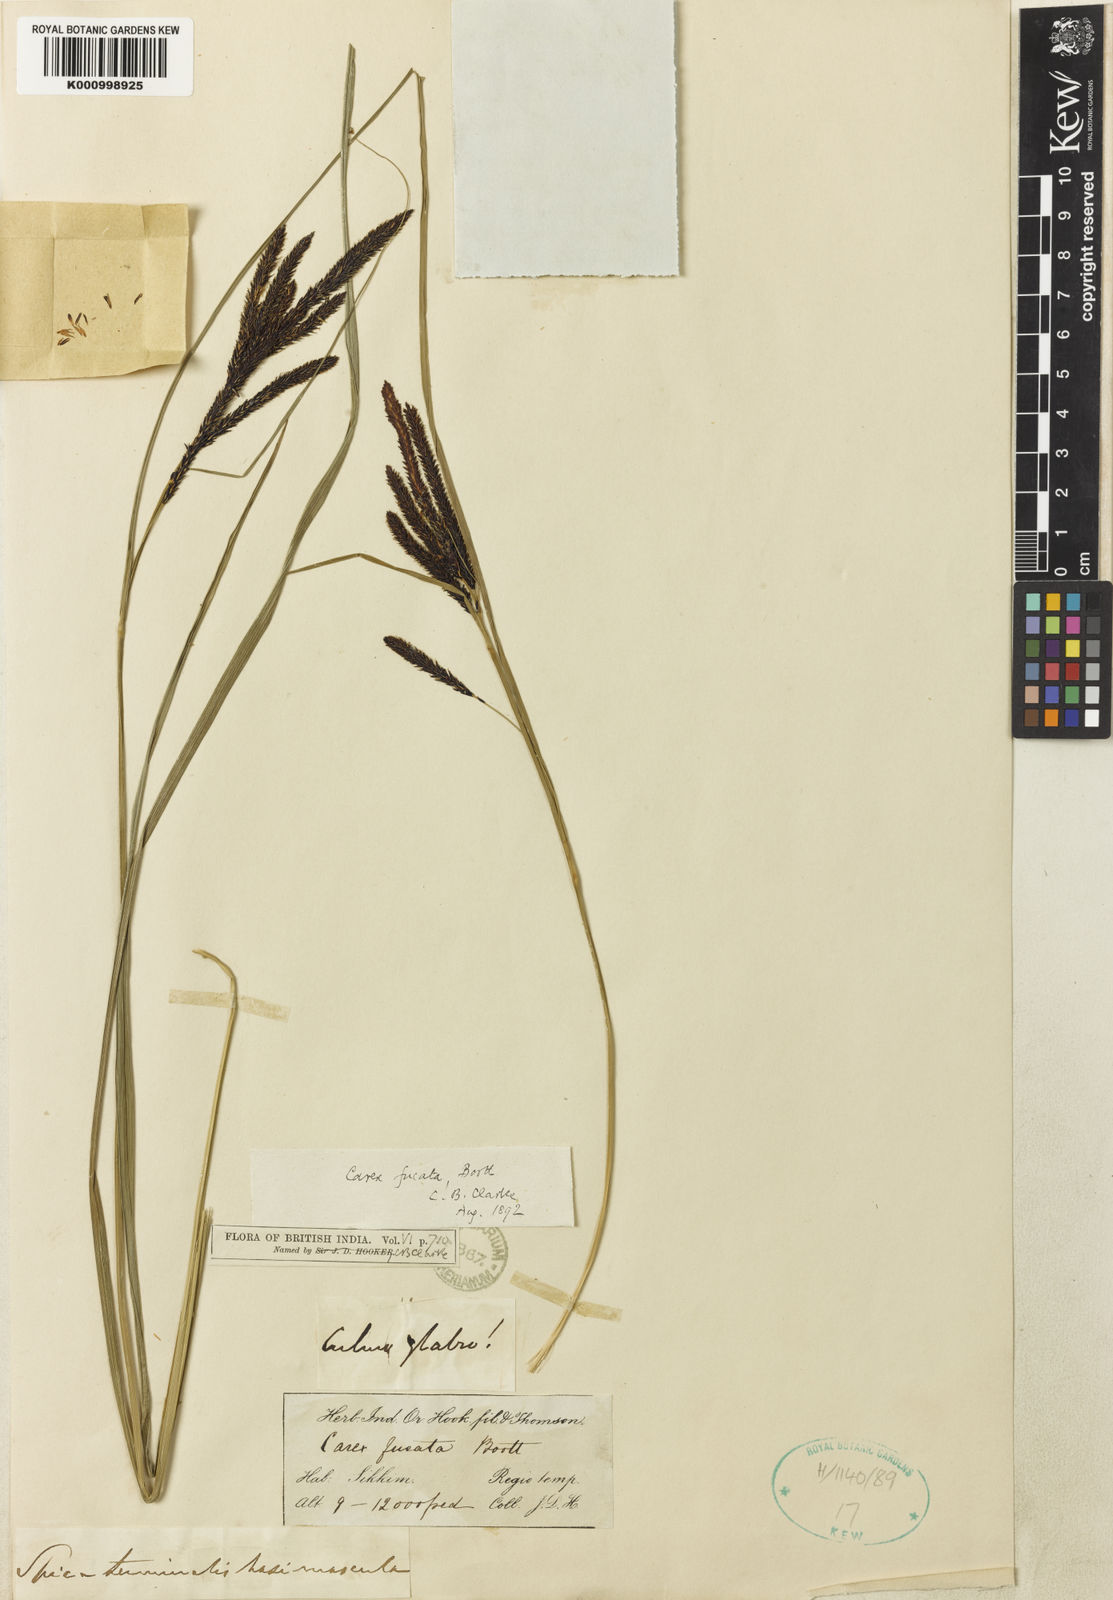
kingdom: Plantae
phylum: Tracheophyta
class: Liliopsida
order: Poales
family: Cyperaceae
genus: Carex
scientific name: Carex fucata
